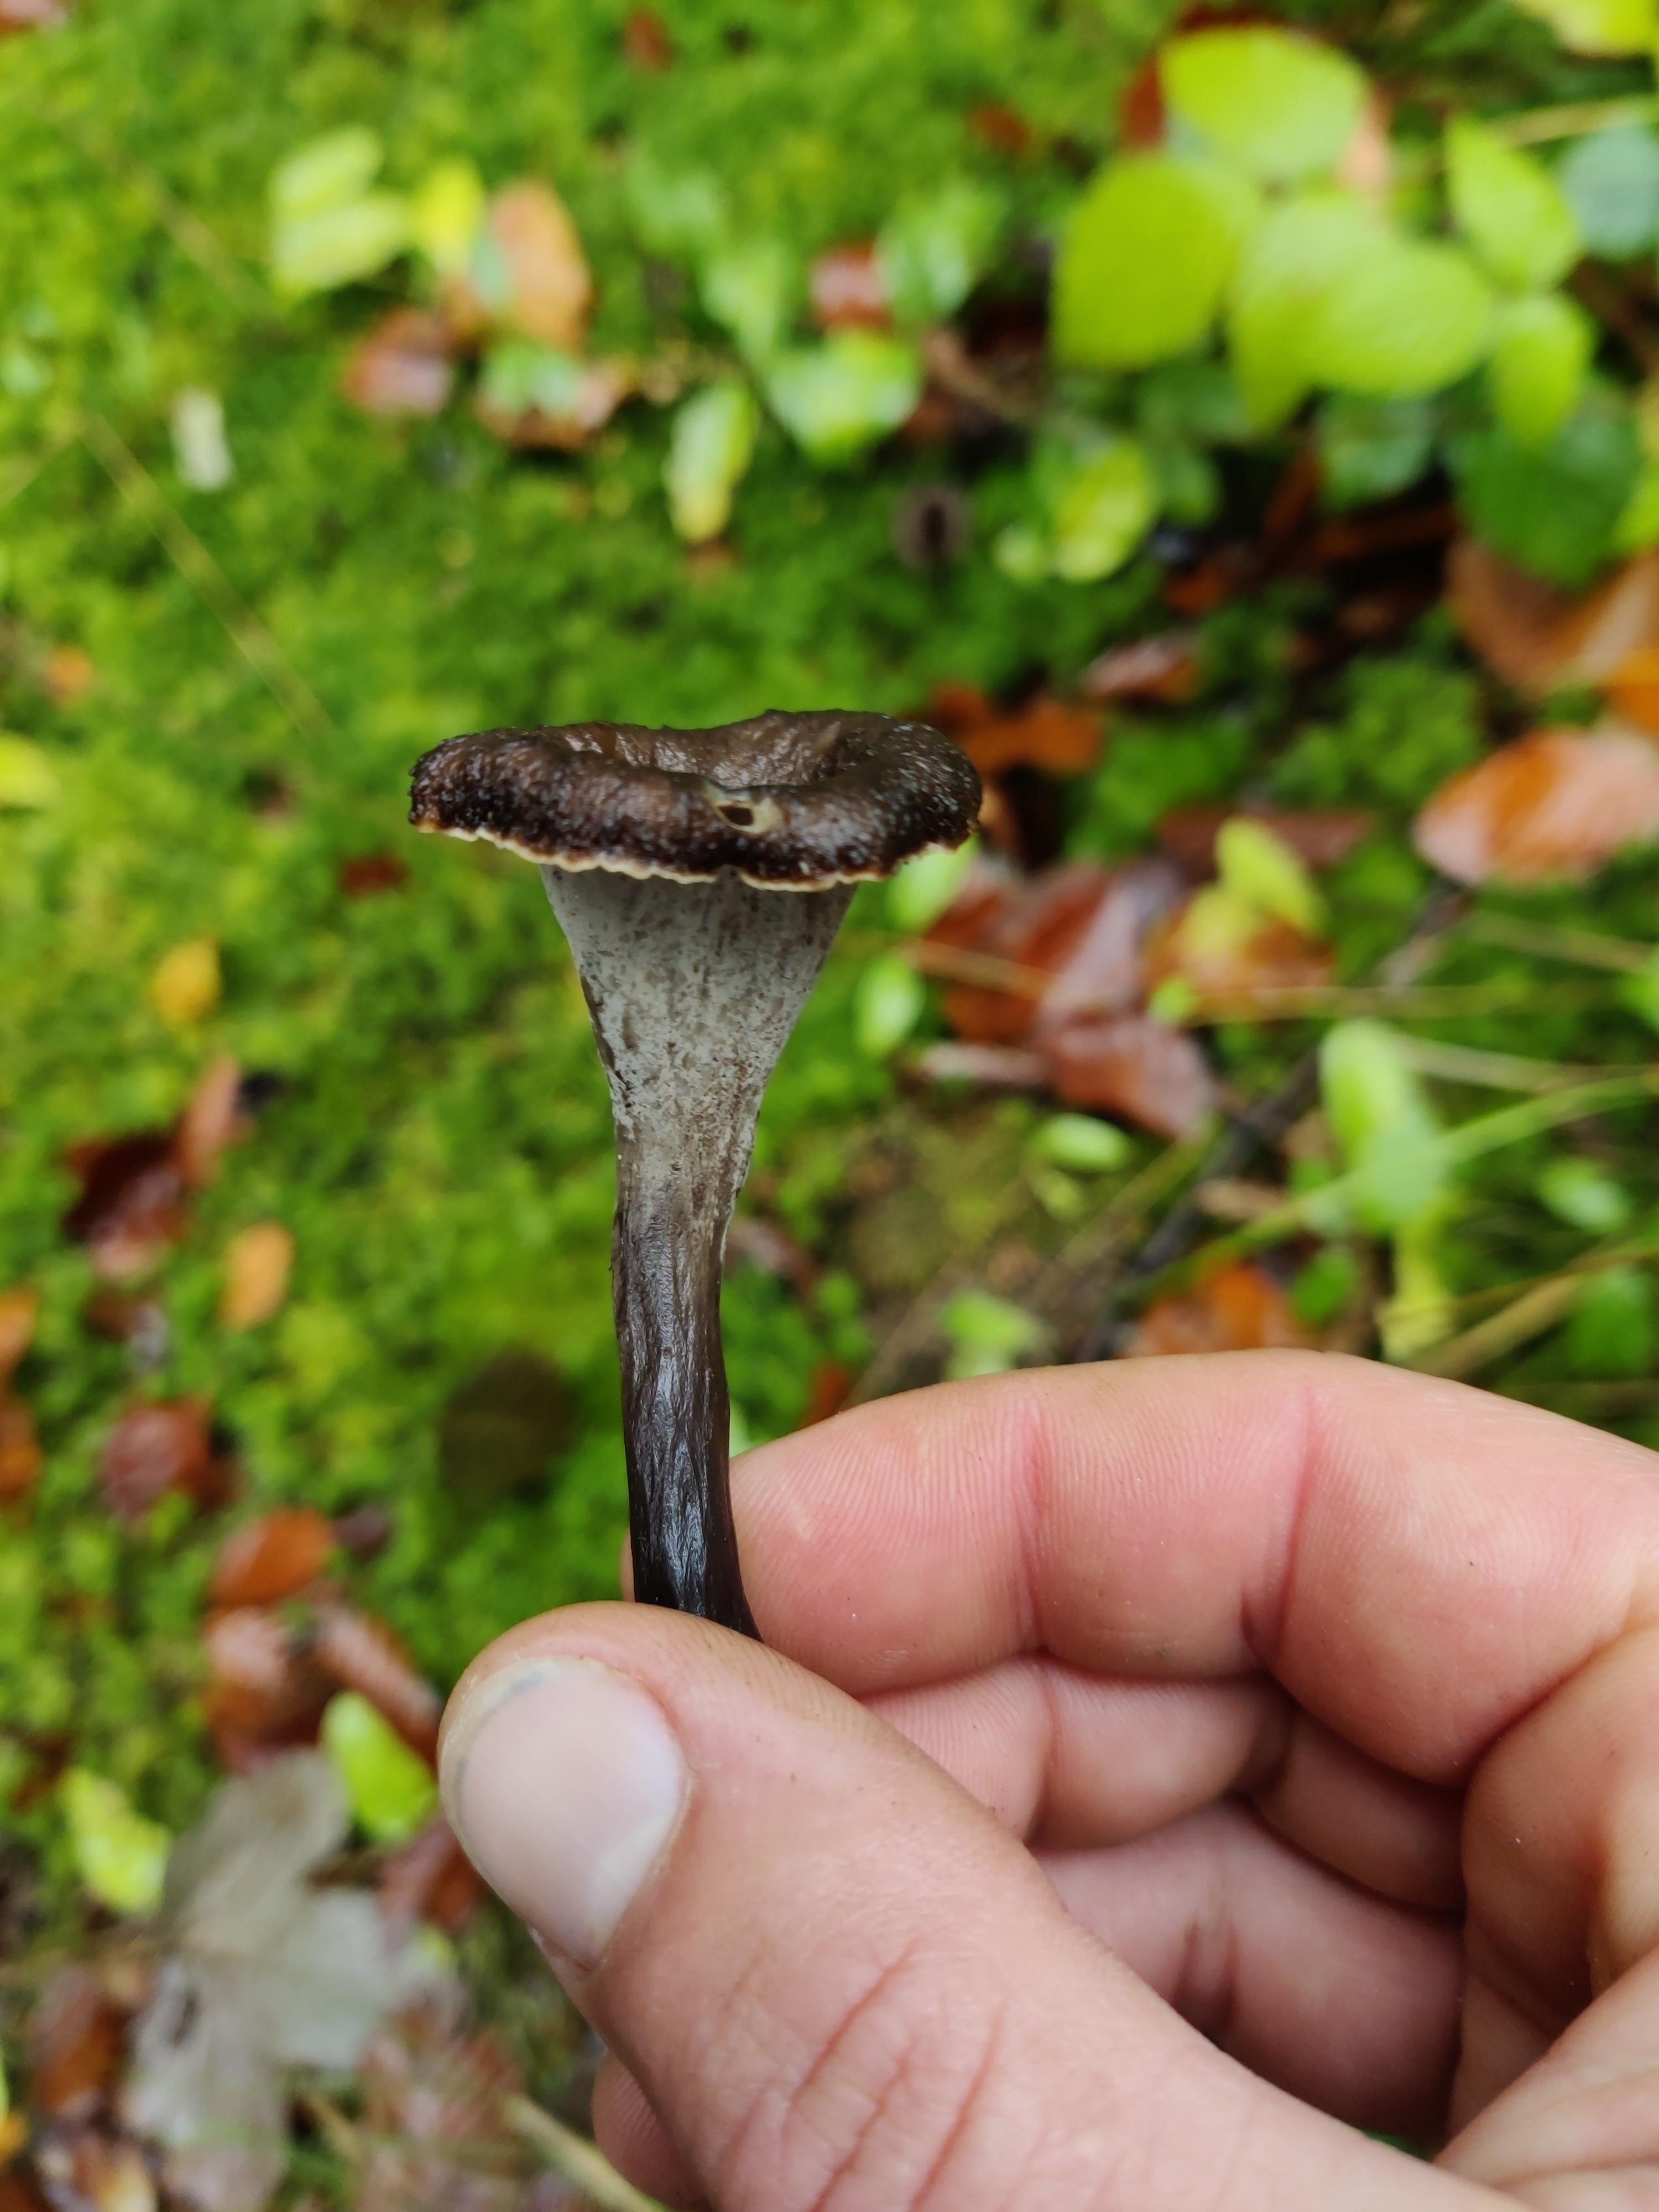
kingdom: Fungi
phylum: Basidiomycota
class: Agaricomycetes
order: Cantharellales
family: Hydnaceae
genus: Craterellus
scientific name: Craterellus cornucopioides
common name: trompetsvamp
